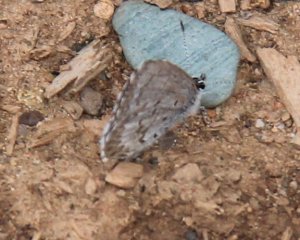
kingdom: Animalia
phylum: Arthropoda
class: Insecta
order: Lepidoptera
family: Lycaenidae
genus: Celastrina
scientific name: Celastrina
